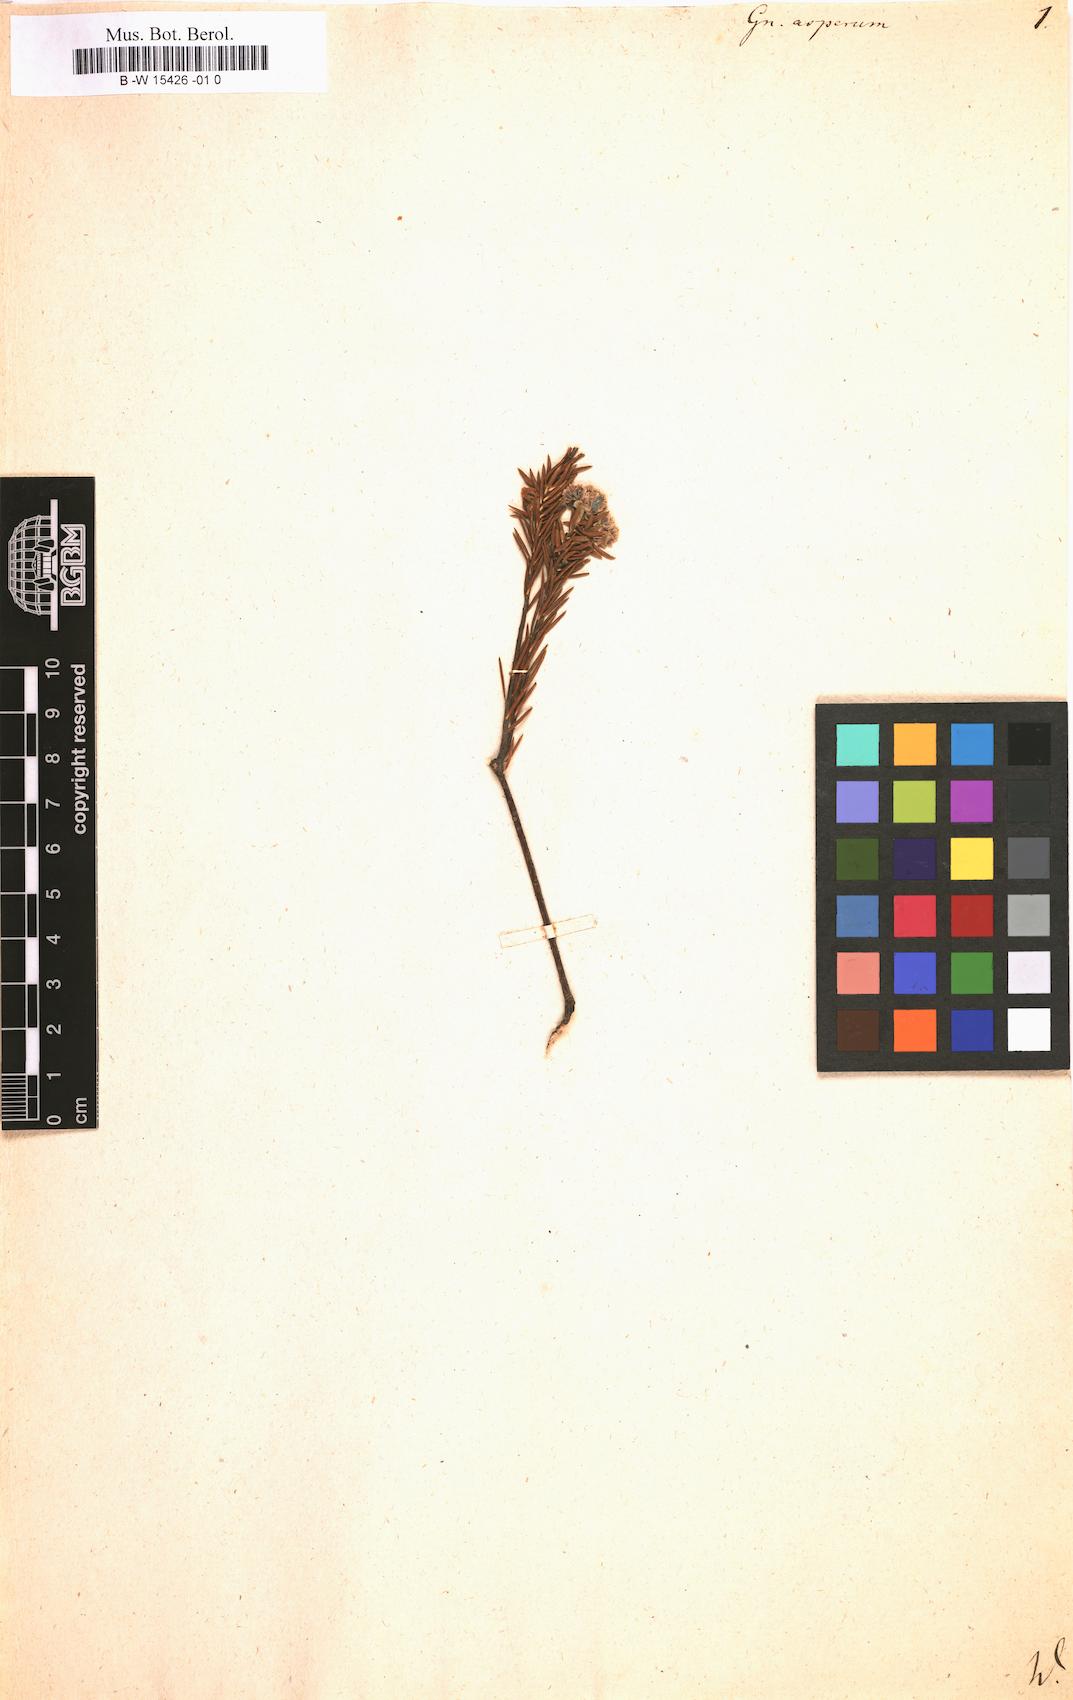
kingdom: Plantae
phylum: Tracheophyta
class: Magnoliopsida
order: Asterales
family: Asteraceae
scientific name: Asteraceae
